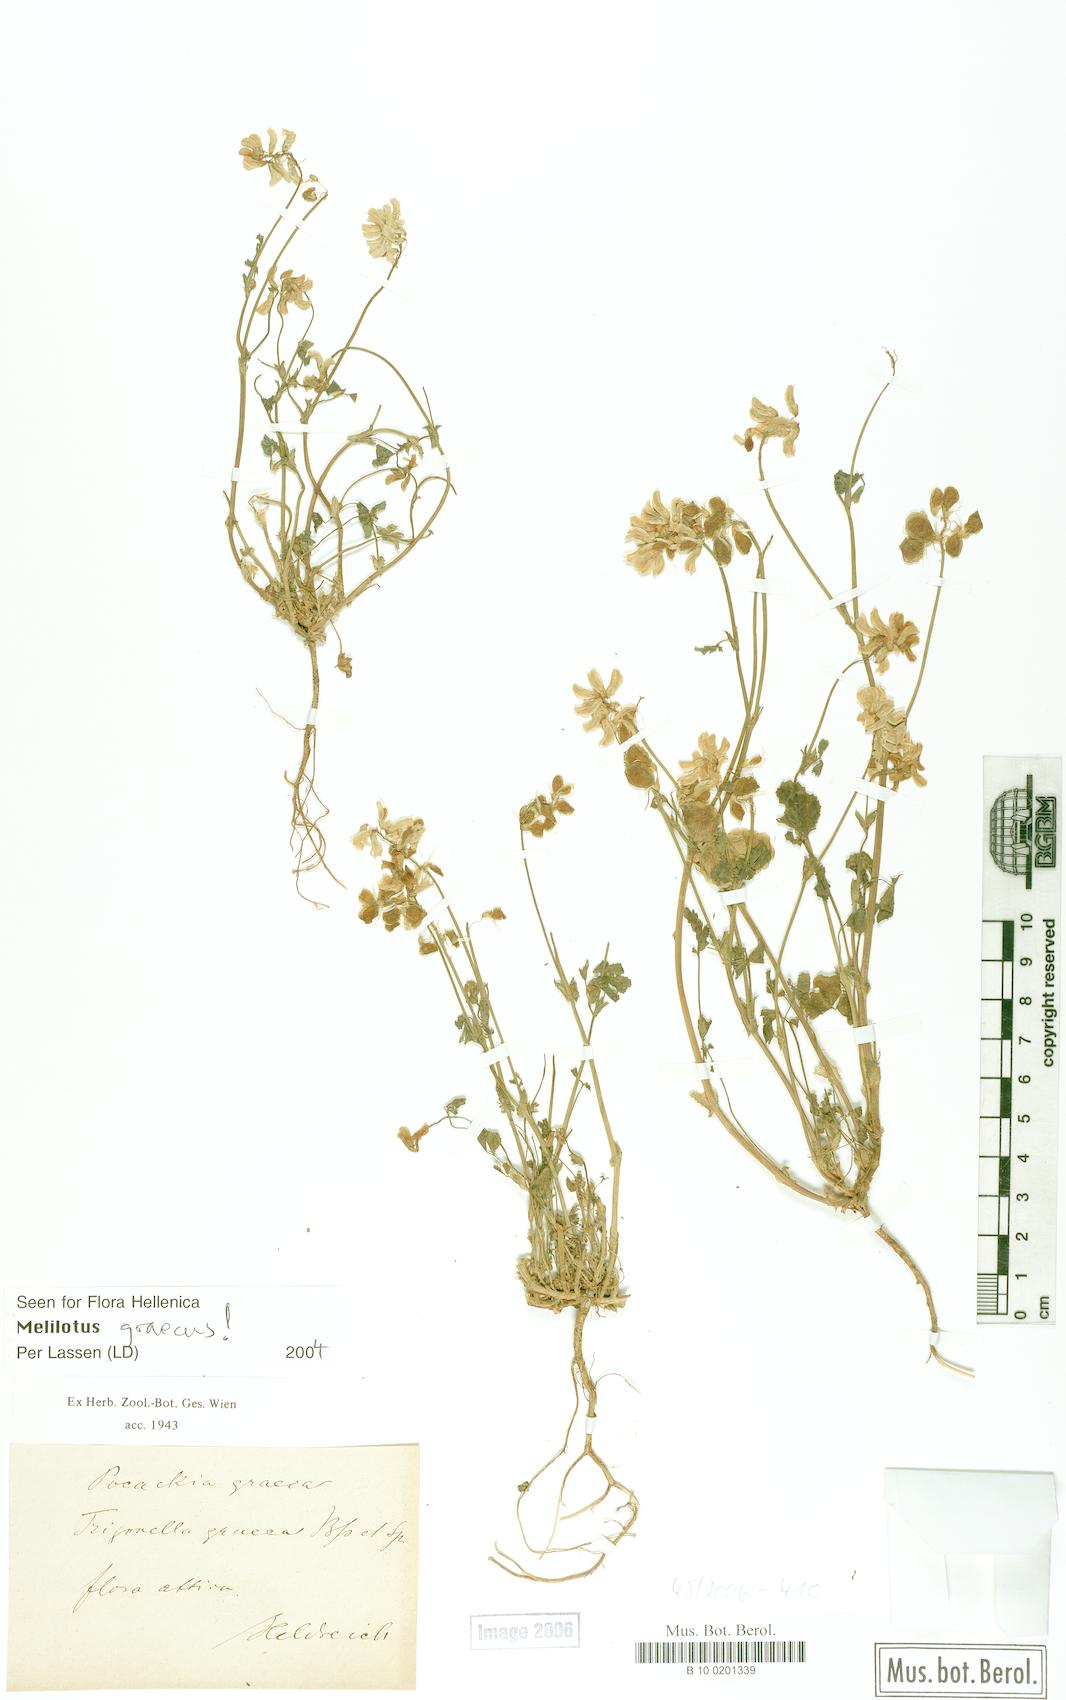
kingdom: Plantae
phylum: Tracheophyta
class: Magnoliopsida
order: Fabales
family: Fabaceae
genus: Trigonella
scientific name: Trigonella graeca
